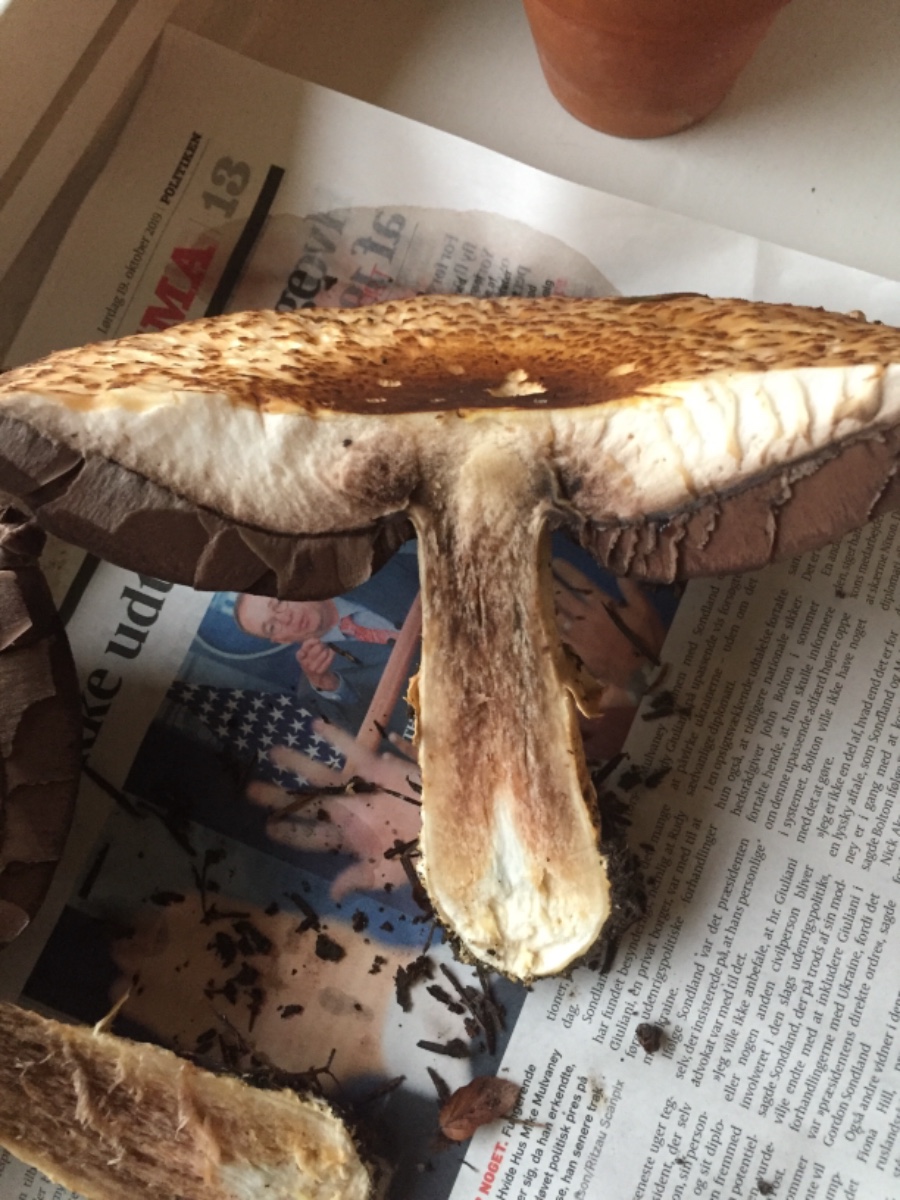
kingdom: Fungi
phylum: Basidiomycota
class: Agaricomycetes
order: Agaricales
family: Agaricaceae
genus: Agaricus
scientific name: Agaricus augustus
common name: prægtig champignon
